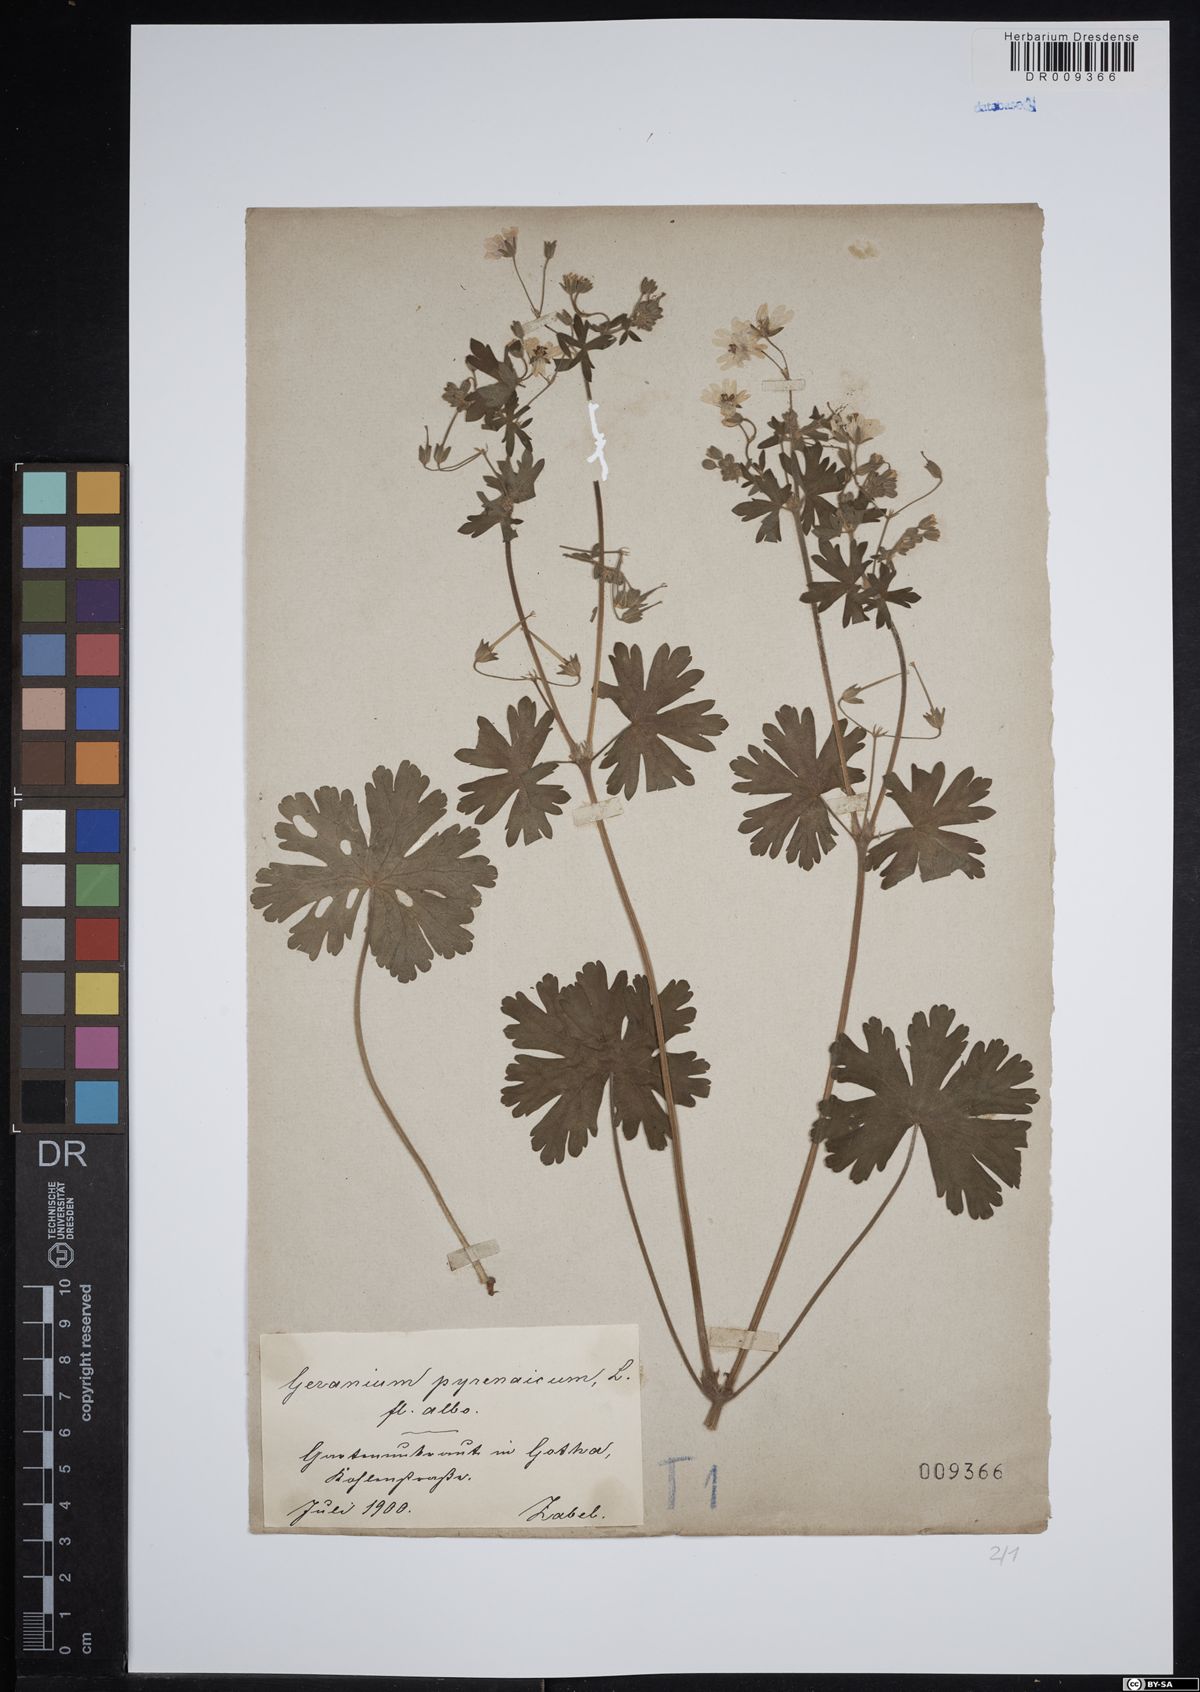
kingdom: Plantae
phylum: Tracheophyta
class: Magnoliopsida
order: Geraniales
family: Geraniaceae
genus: Geranium
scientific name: Geranium pyrenaicum
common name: Hedgerow crane's-bill
